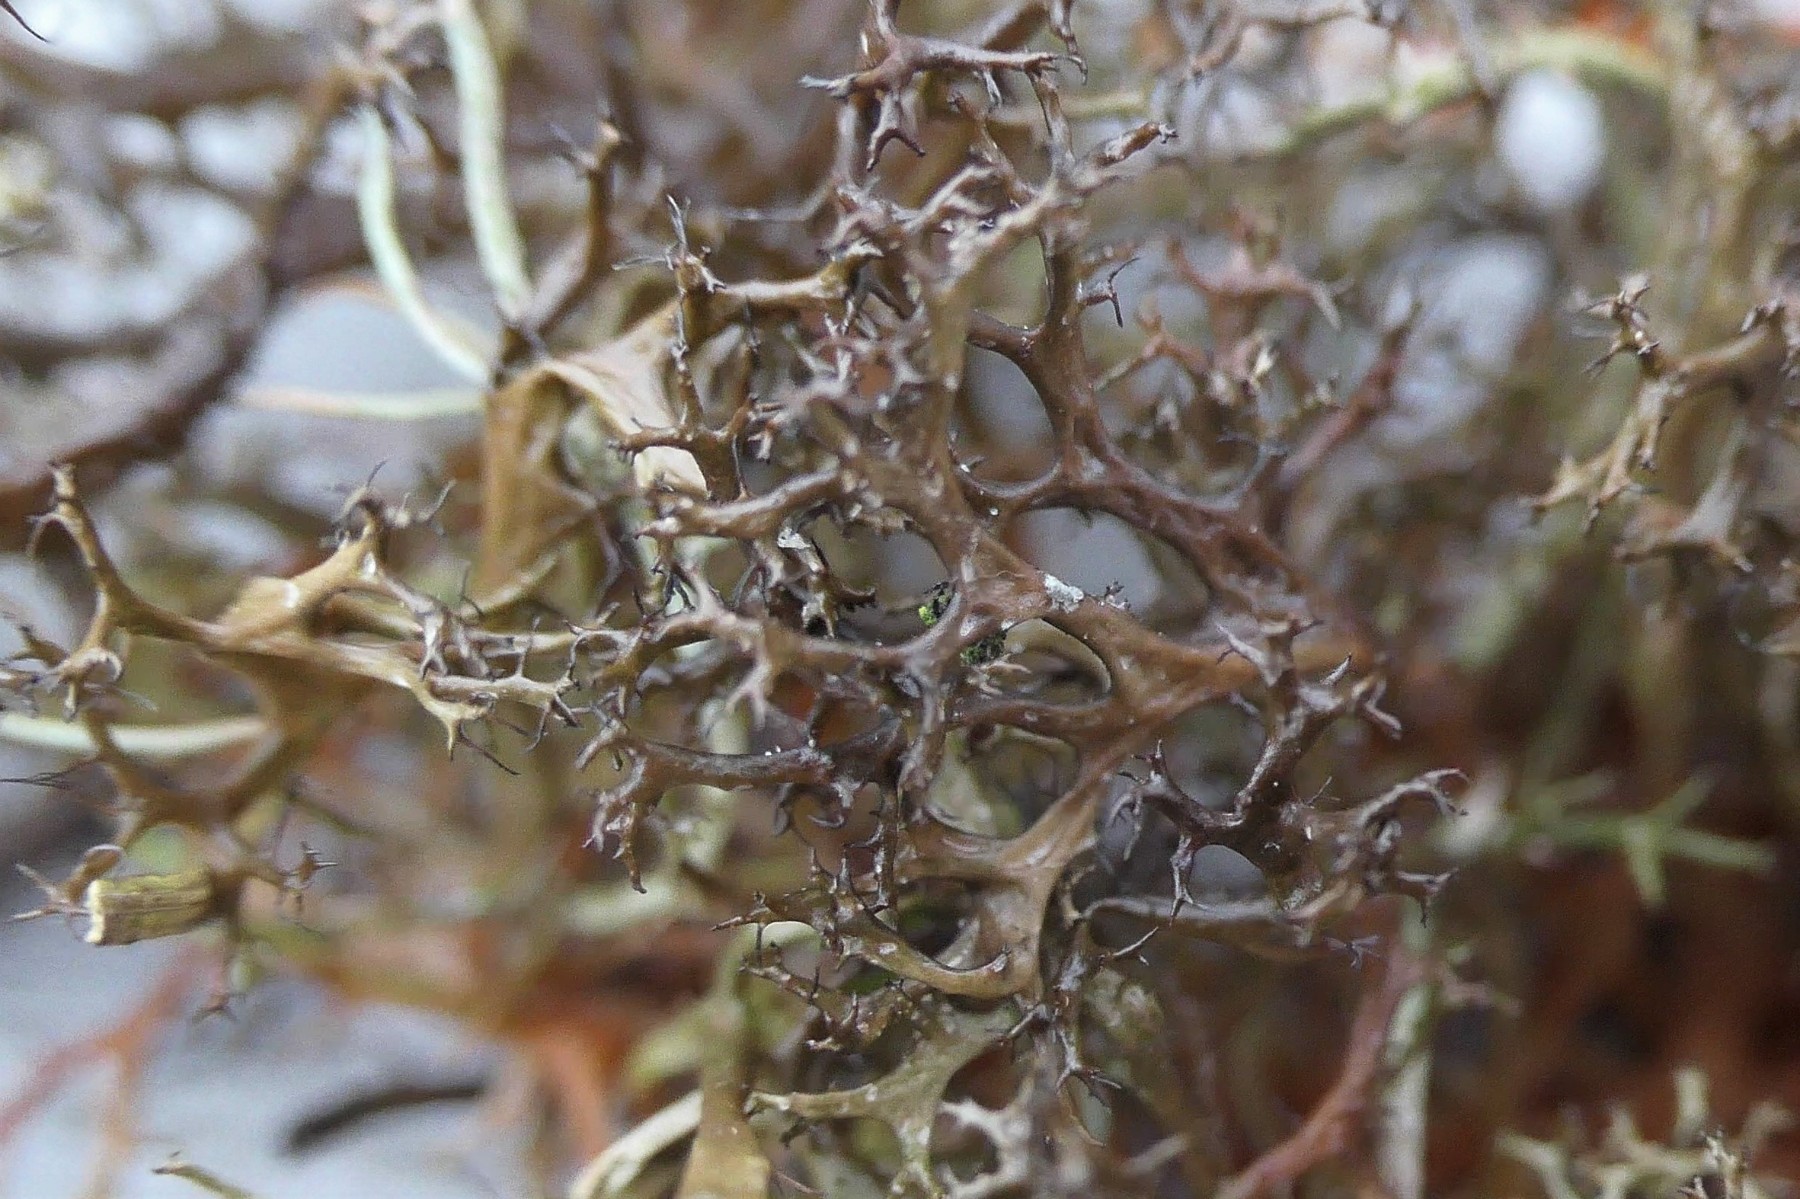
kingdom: Fungi
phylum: Ascomycota
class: Lecanoromycetes
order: Lecanorales
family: Parmeliaceae
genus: Cetraria
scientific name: Cetraria aculeata
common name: grubet tjørnelav
